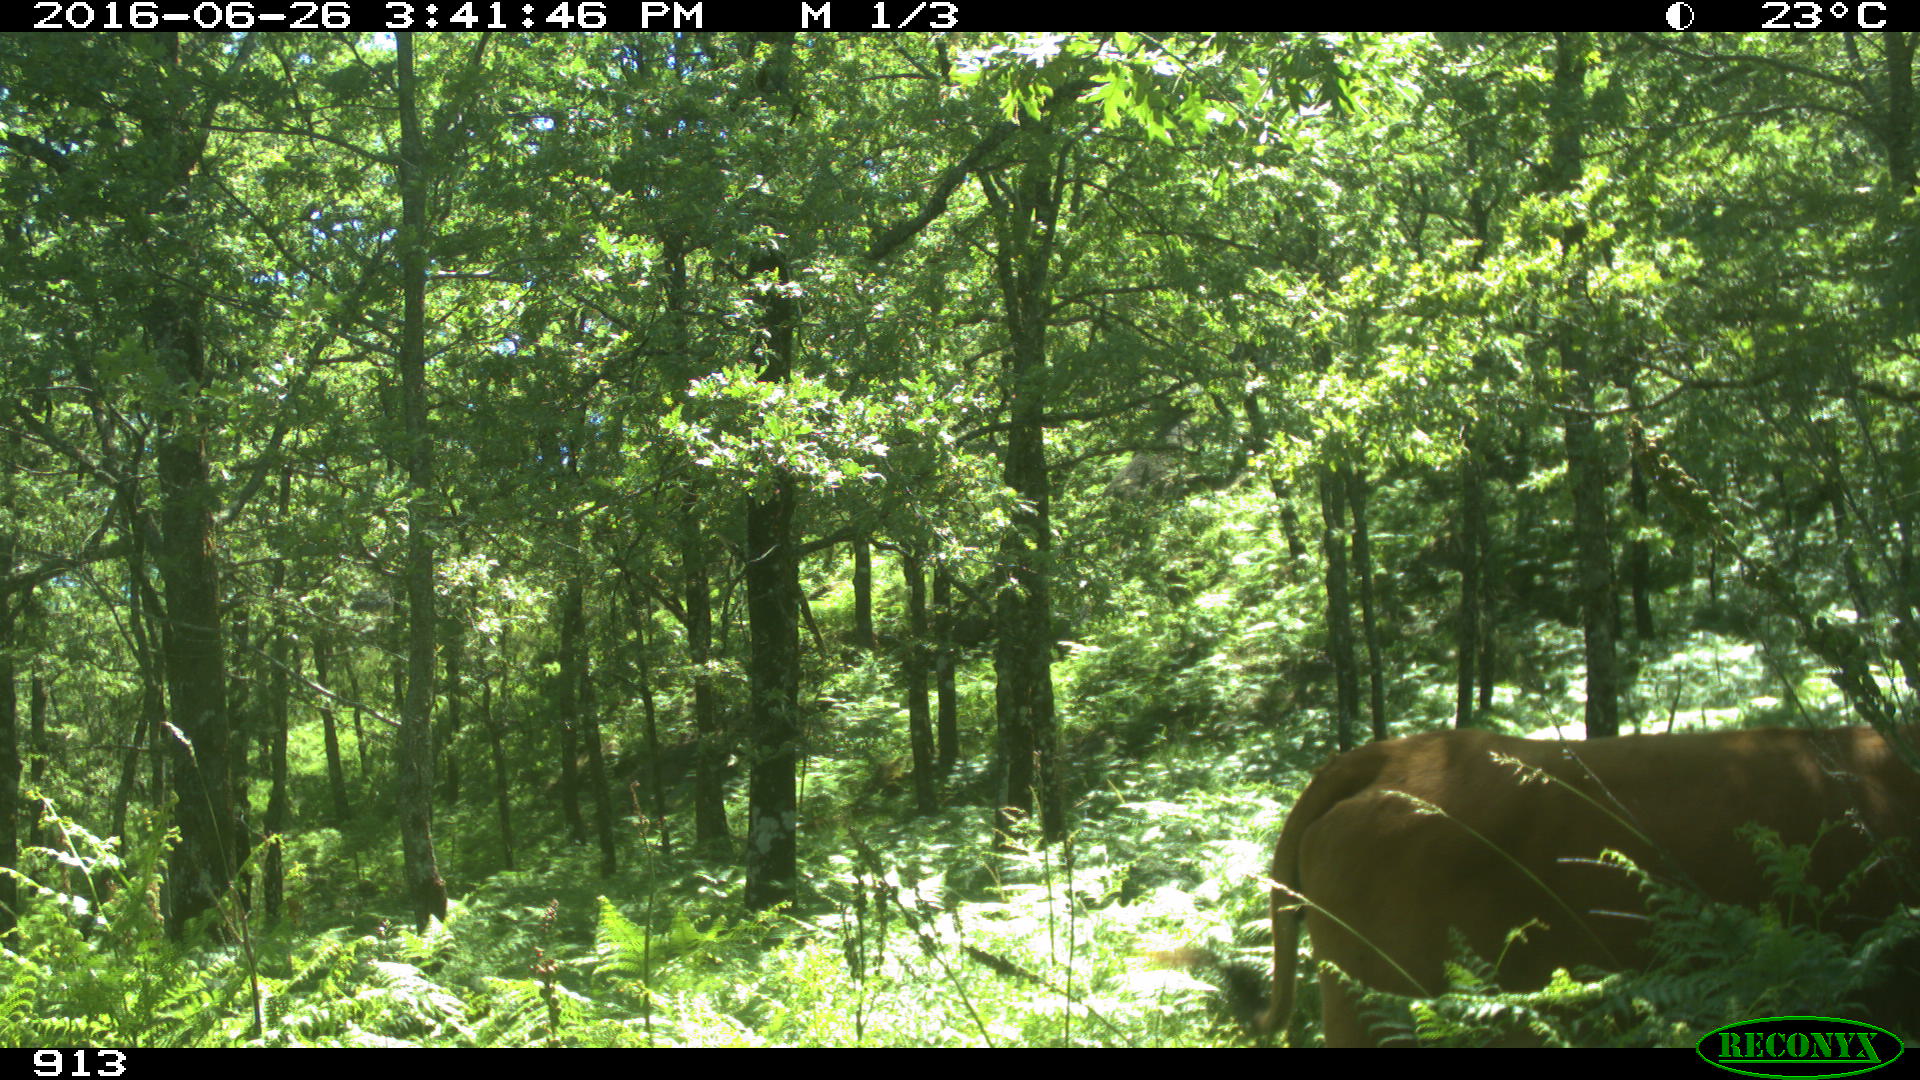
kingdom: Animalia
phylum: Chordata
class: Mammalia
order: Artiodactyla
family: Bovidae
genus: Bos
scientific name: Bos taurus
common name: Domesticated cattle
